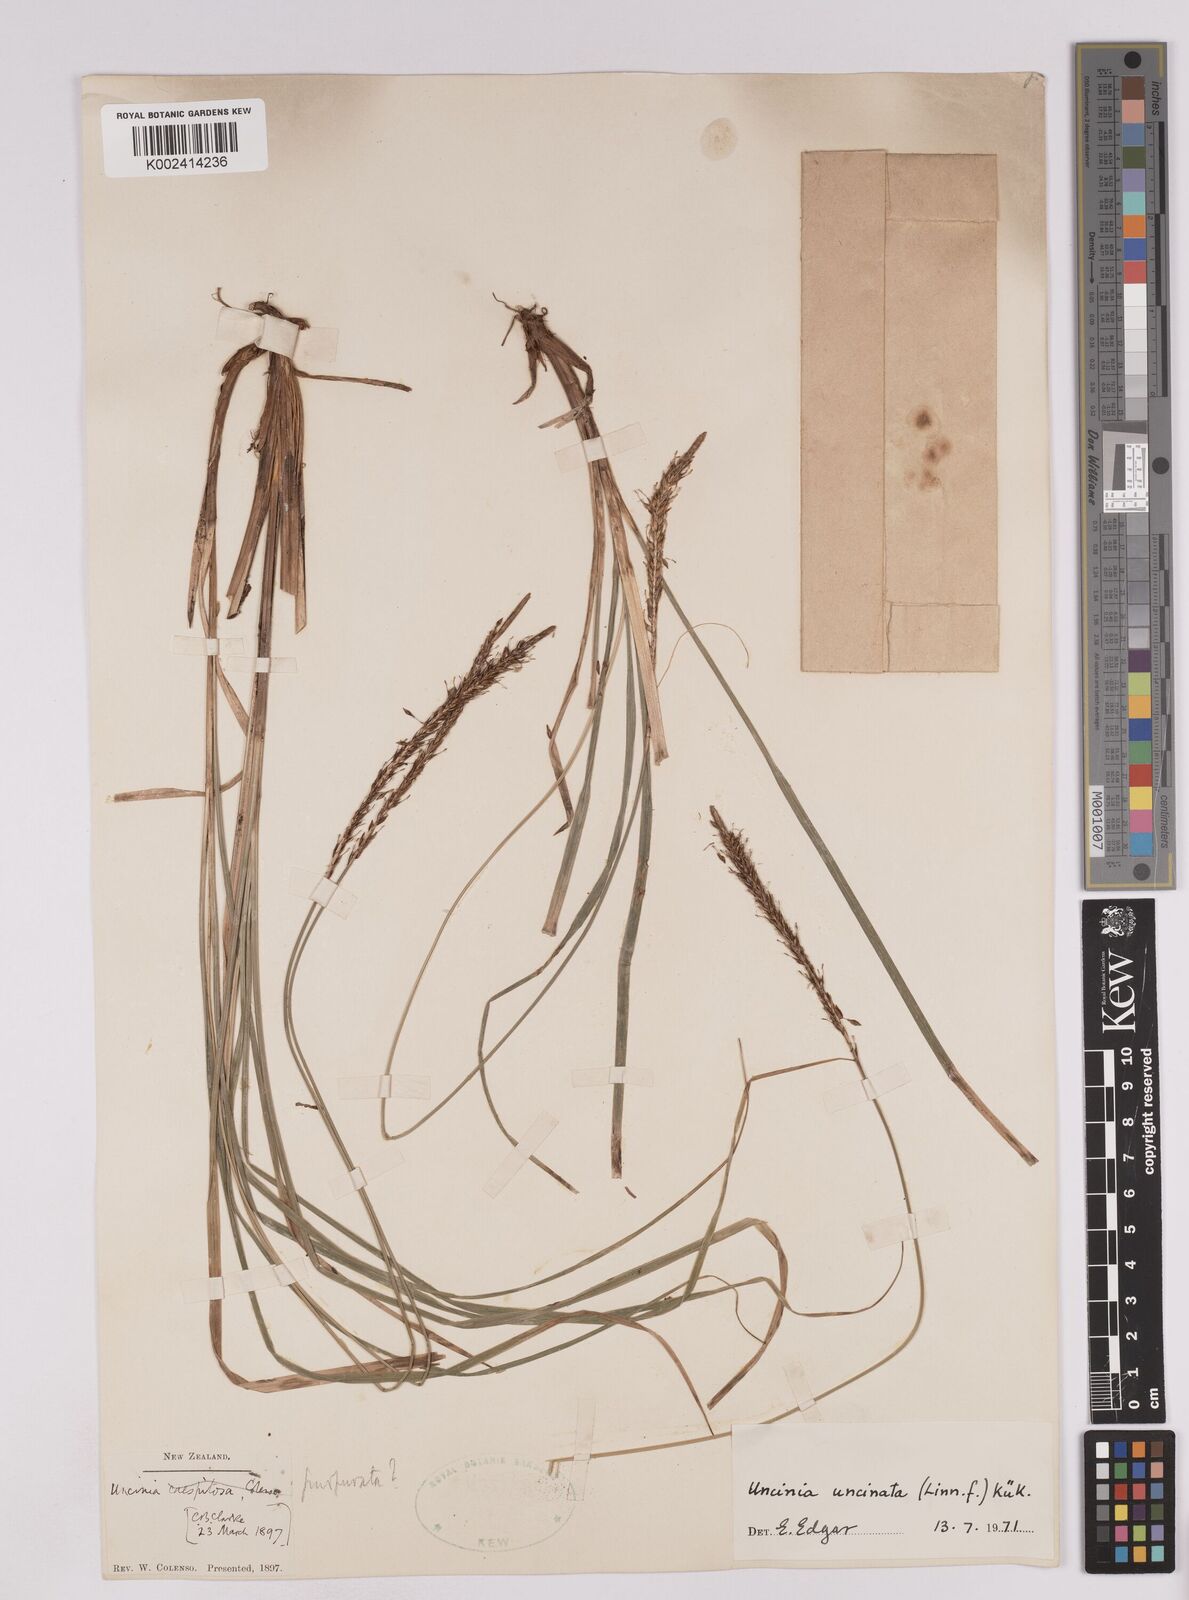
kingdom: Plantae
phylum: Tracheophyta
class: Liliopsida
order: Poales
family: Cyperaceae
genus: Carex
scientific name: Carex uncinata
